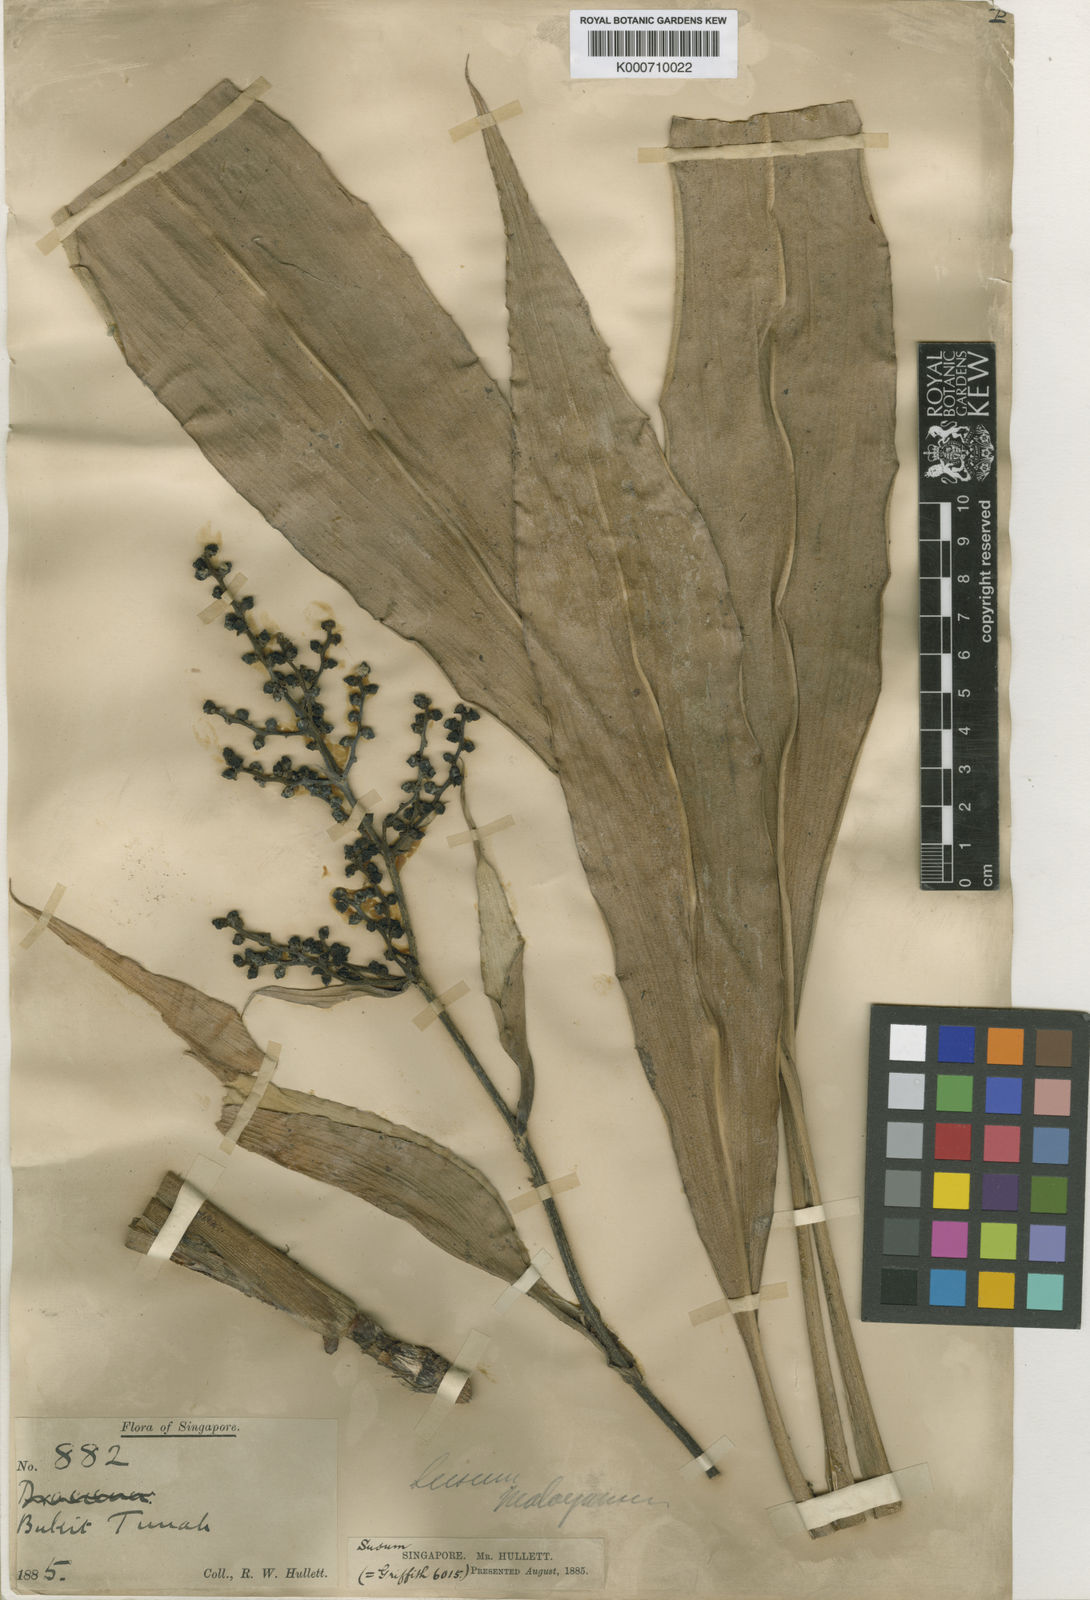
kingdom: Plantae
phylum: Tracheophyta
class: Liliopsida
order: Commelinales
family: Hanguanaceae
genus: Hanguana
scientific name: Hanguana malayana
